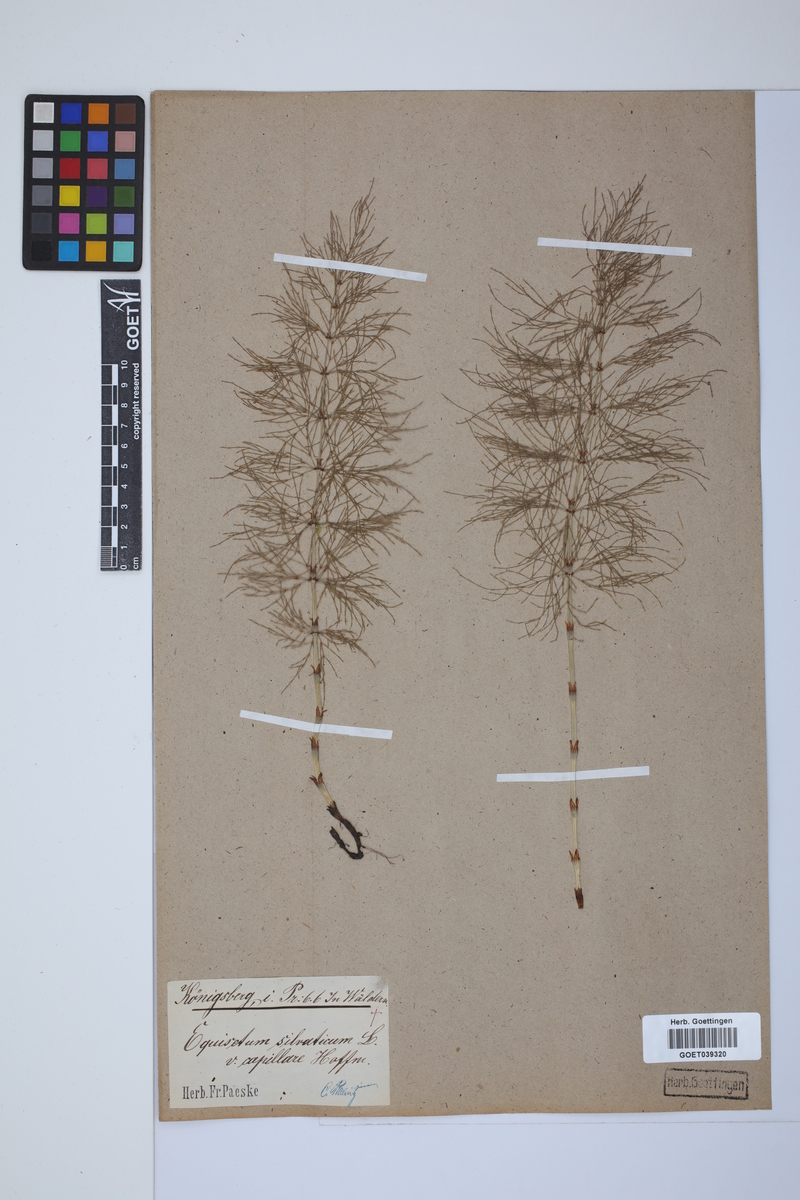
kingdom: Plantae
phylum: Tracheophyta
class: Polypodiopsida
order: Equisetales
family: Equisetaceae
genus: Equisetum
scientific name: Equisetum sylvaticum
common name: Wood horsetail
